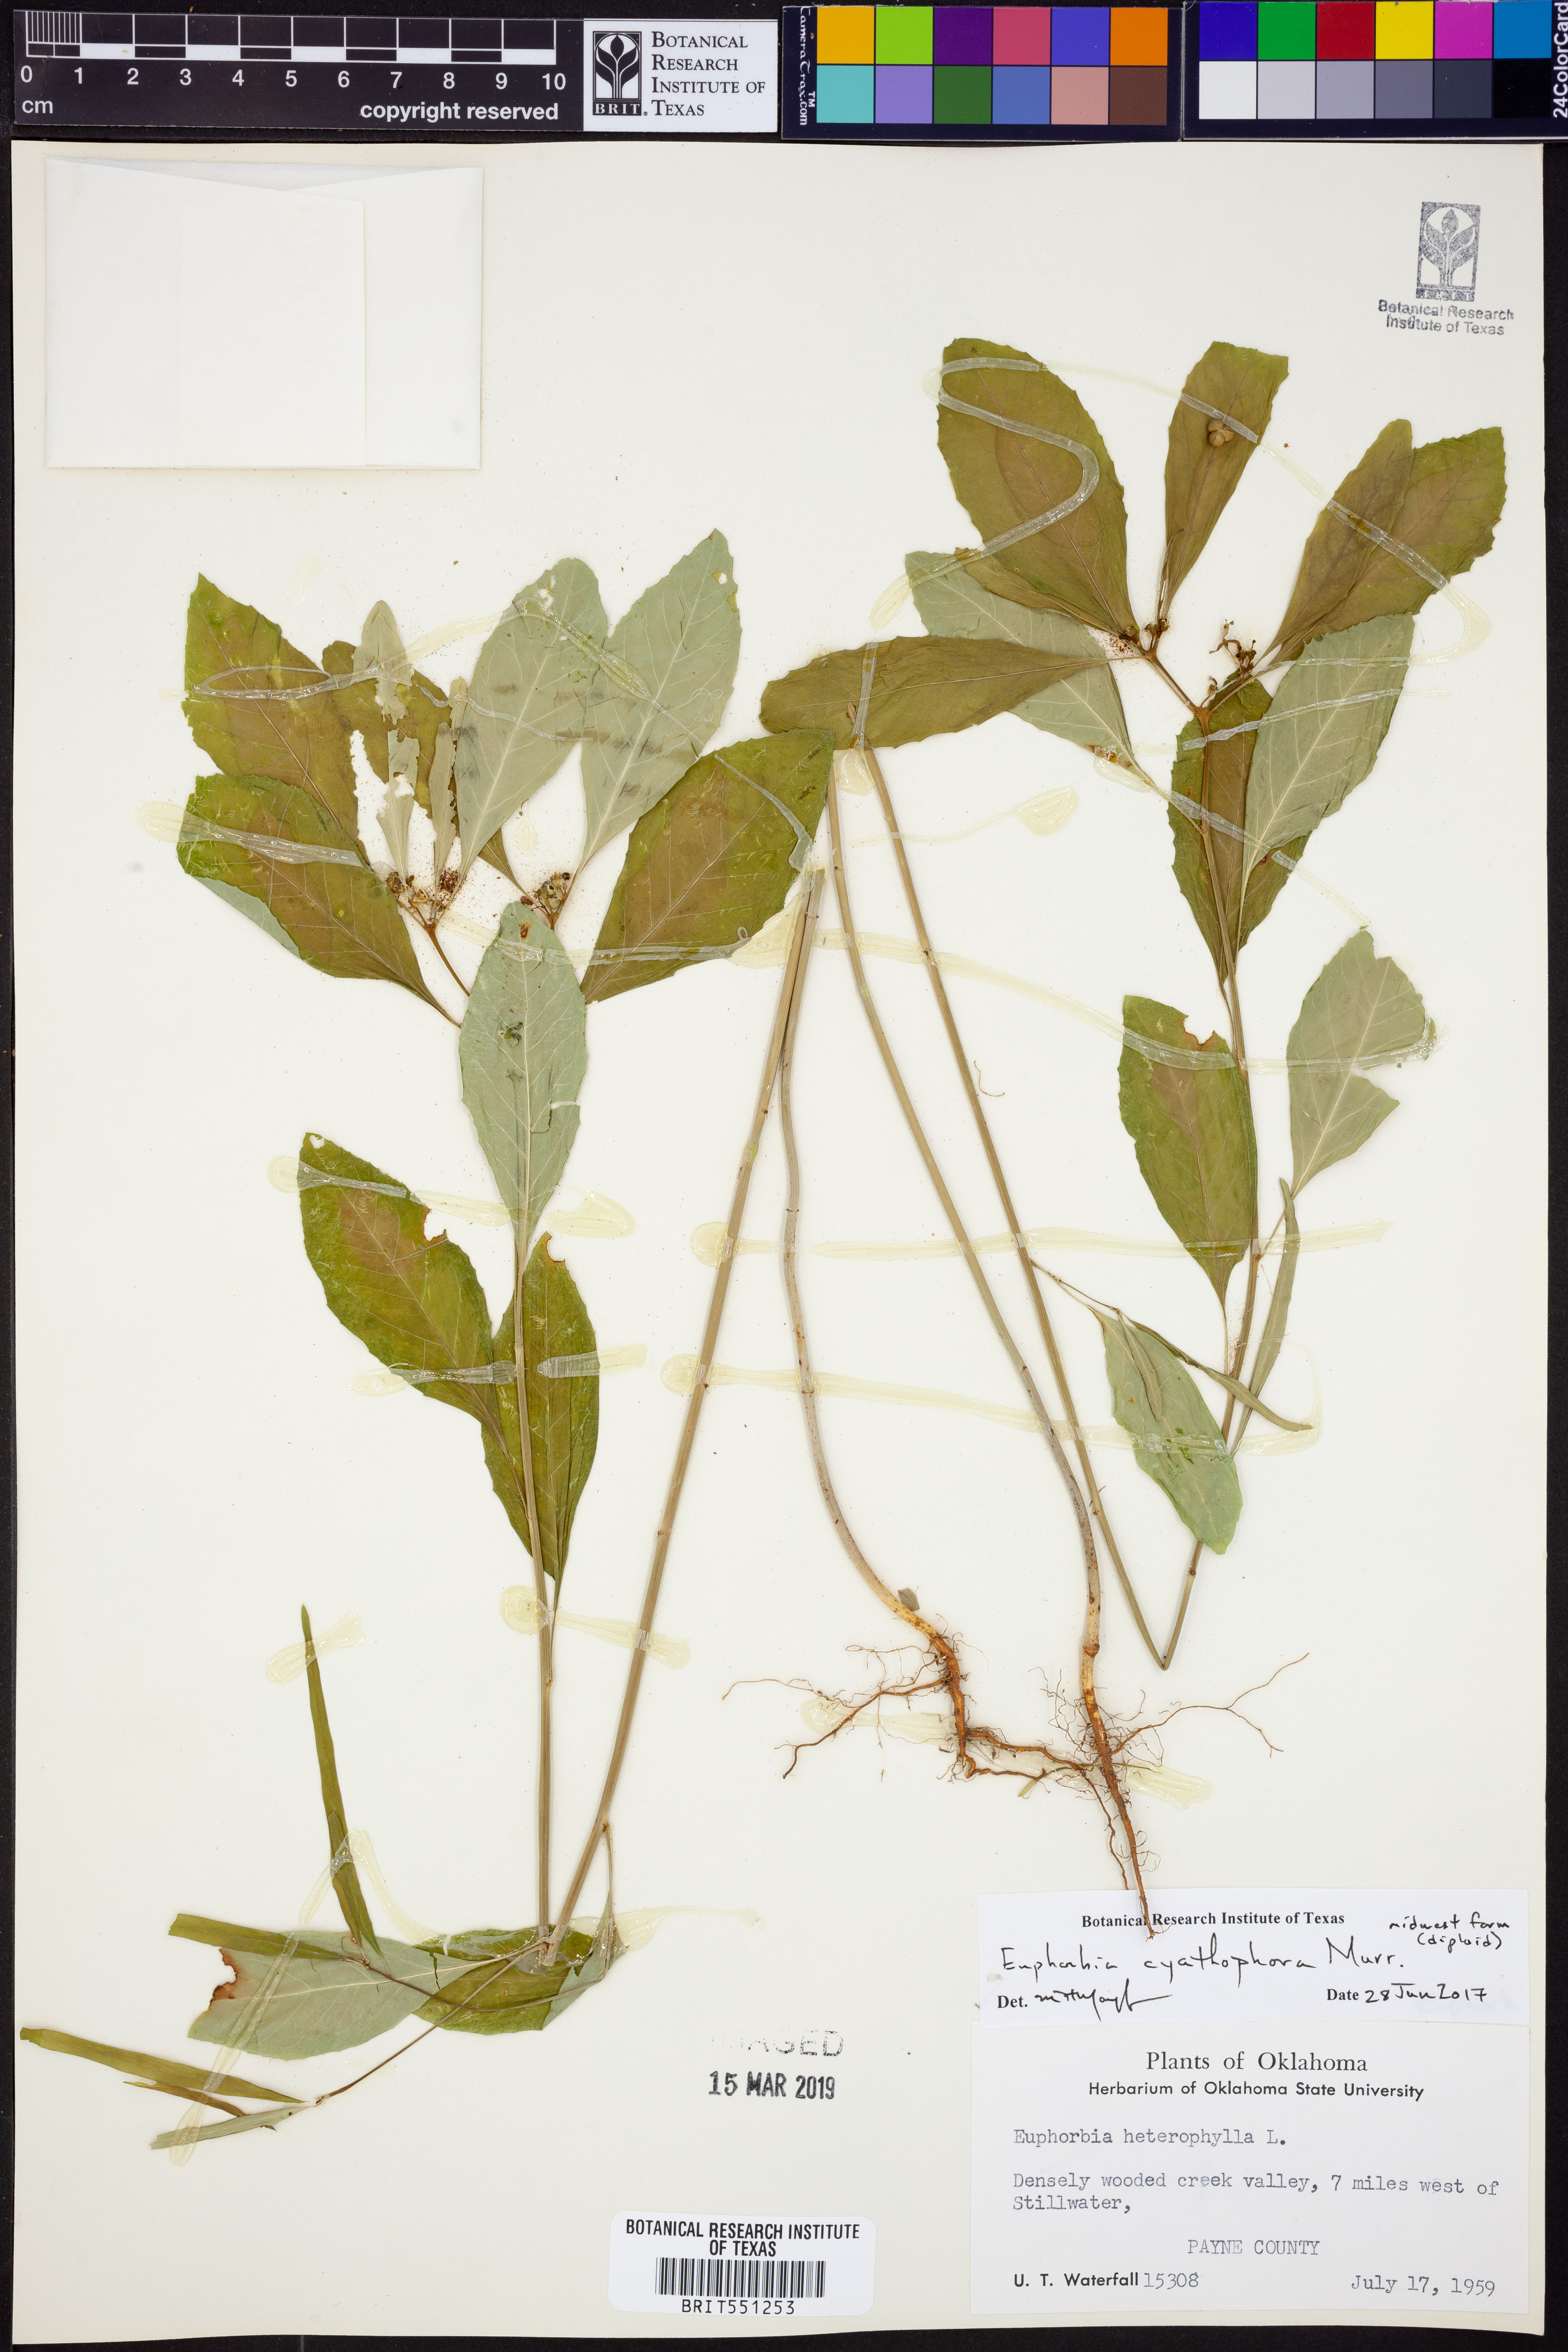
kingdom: Plantae
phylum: Tracheophyta
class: Magnoliopsida
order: Malpighiales
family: Euphorbiaceae
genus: Euphorbia
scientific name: Euphorbia heterophylla
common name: Mexican fireplant
